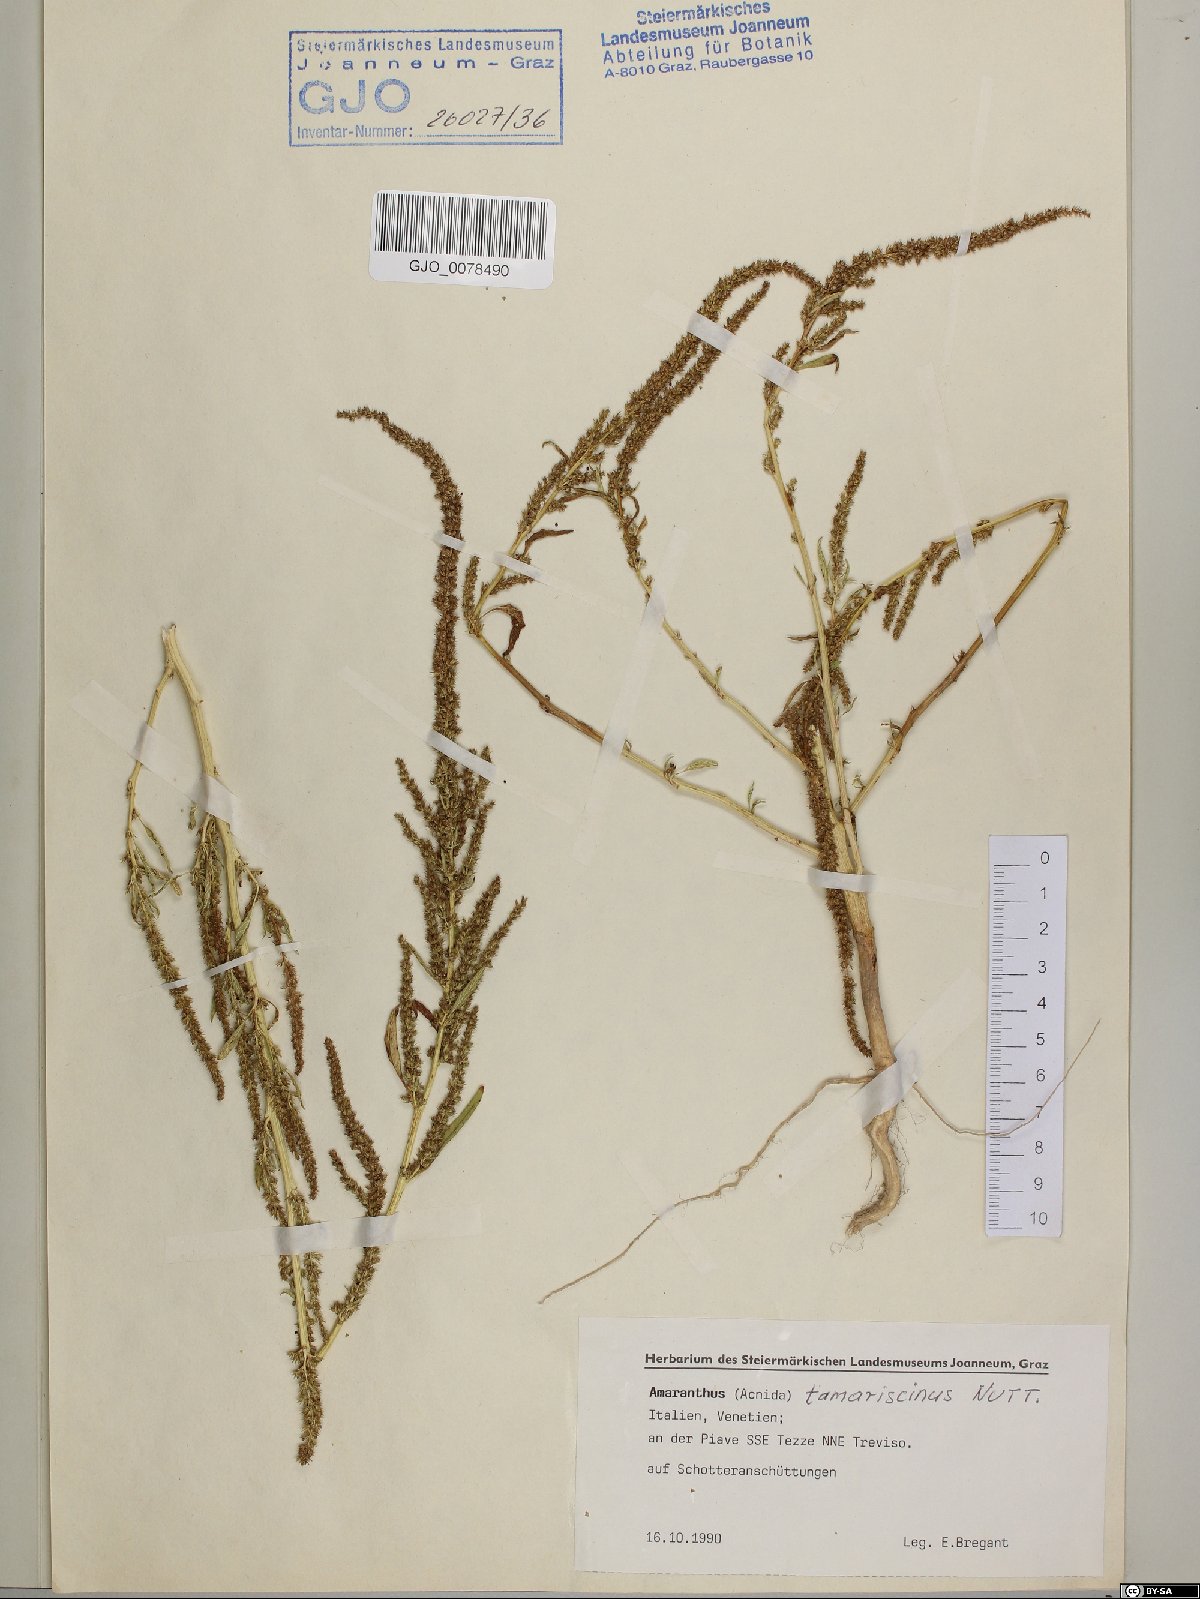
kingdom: Plantae
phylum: Tracheophyta
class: Magnoliopsida
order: Caryophyllales
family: Amaranthaceae
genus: Amaranthus
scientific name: Amaranthus tamariscinus
